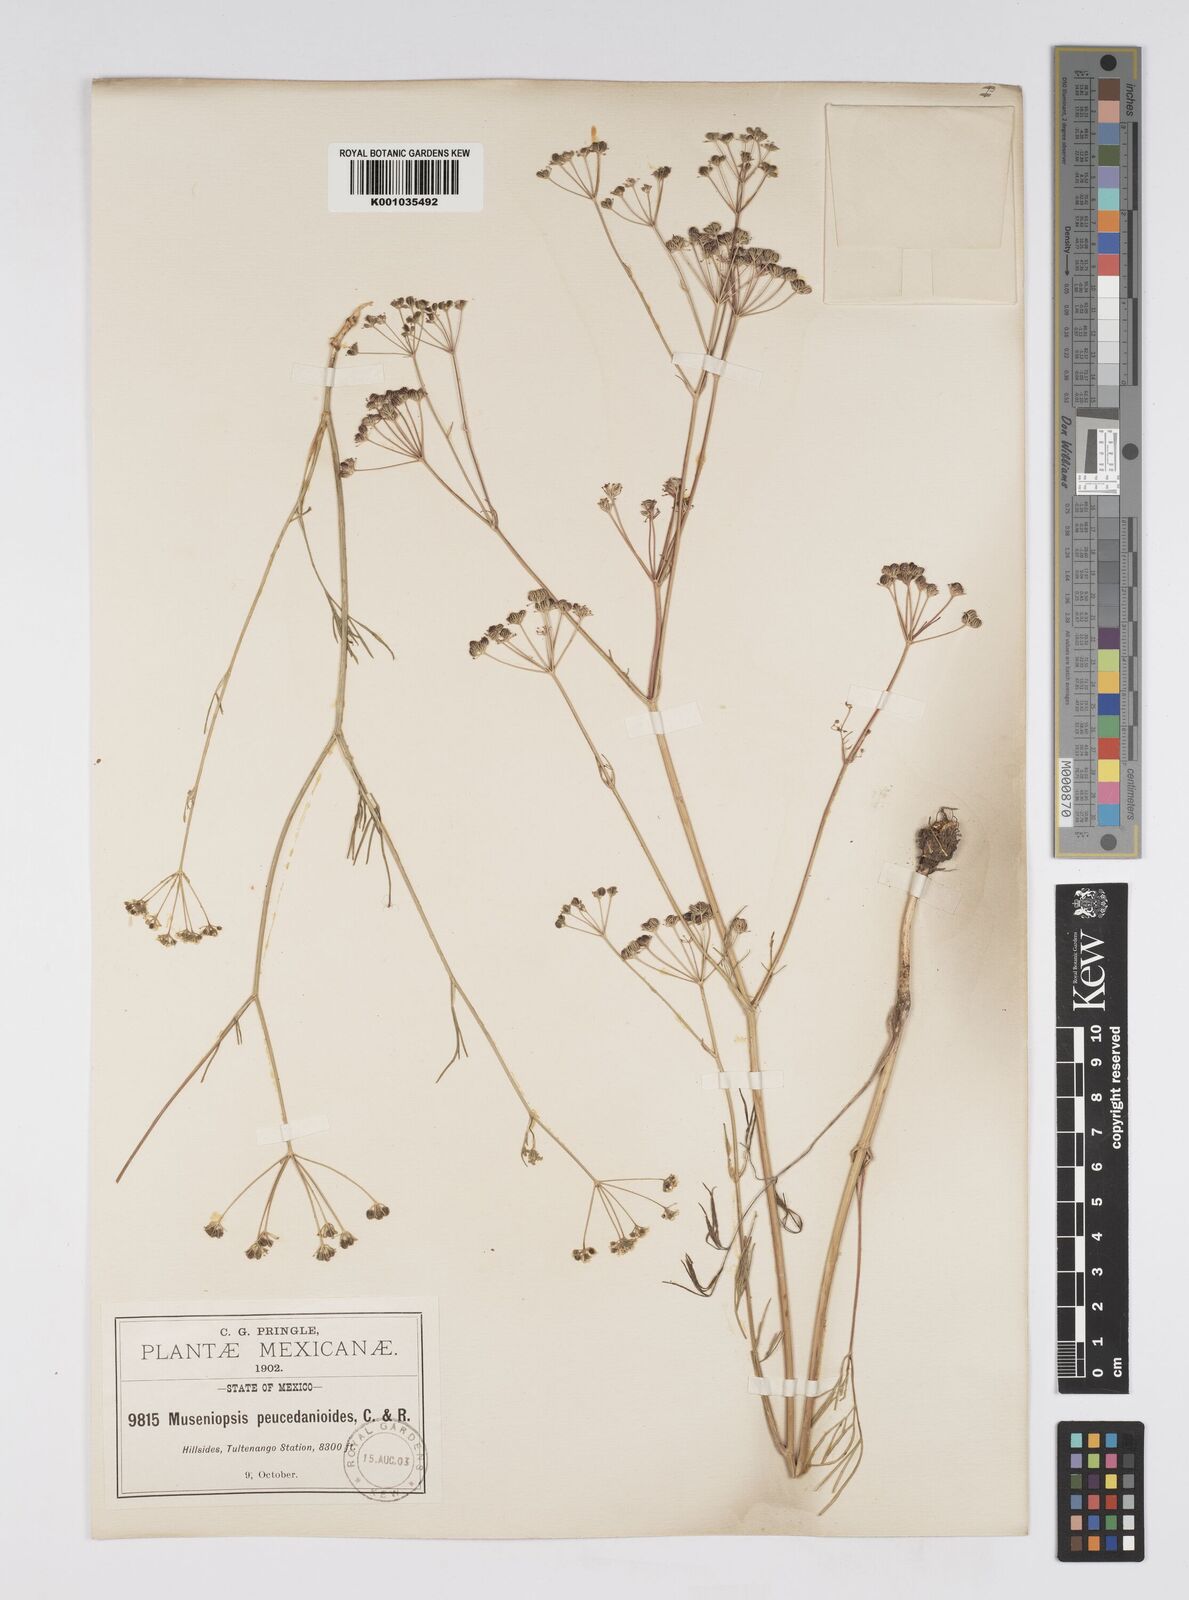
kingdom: Plantae
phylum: Tracheophyta
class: Magnoliopsida
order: Apiales
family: Apiaceae
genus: Donnellsmithia
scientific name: Donnellsmithia juncea
